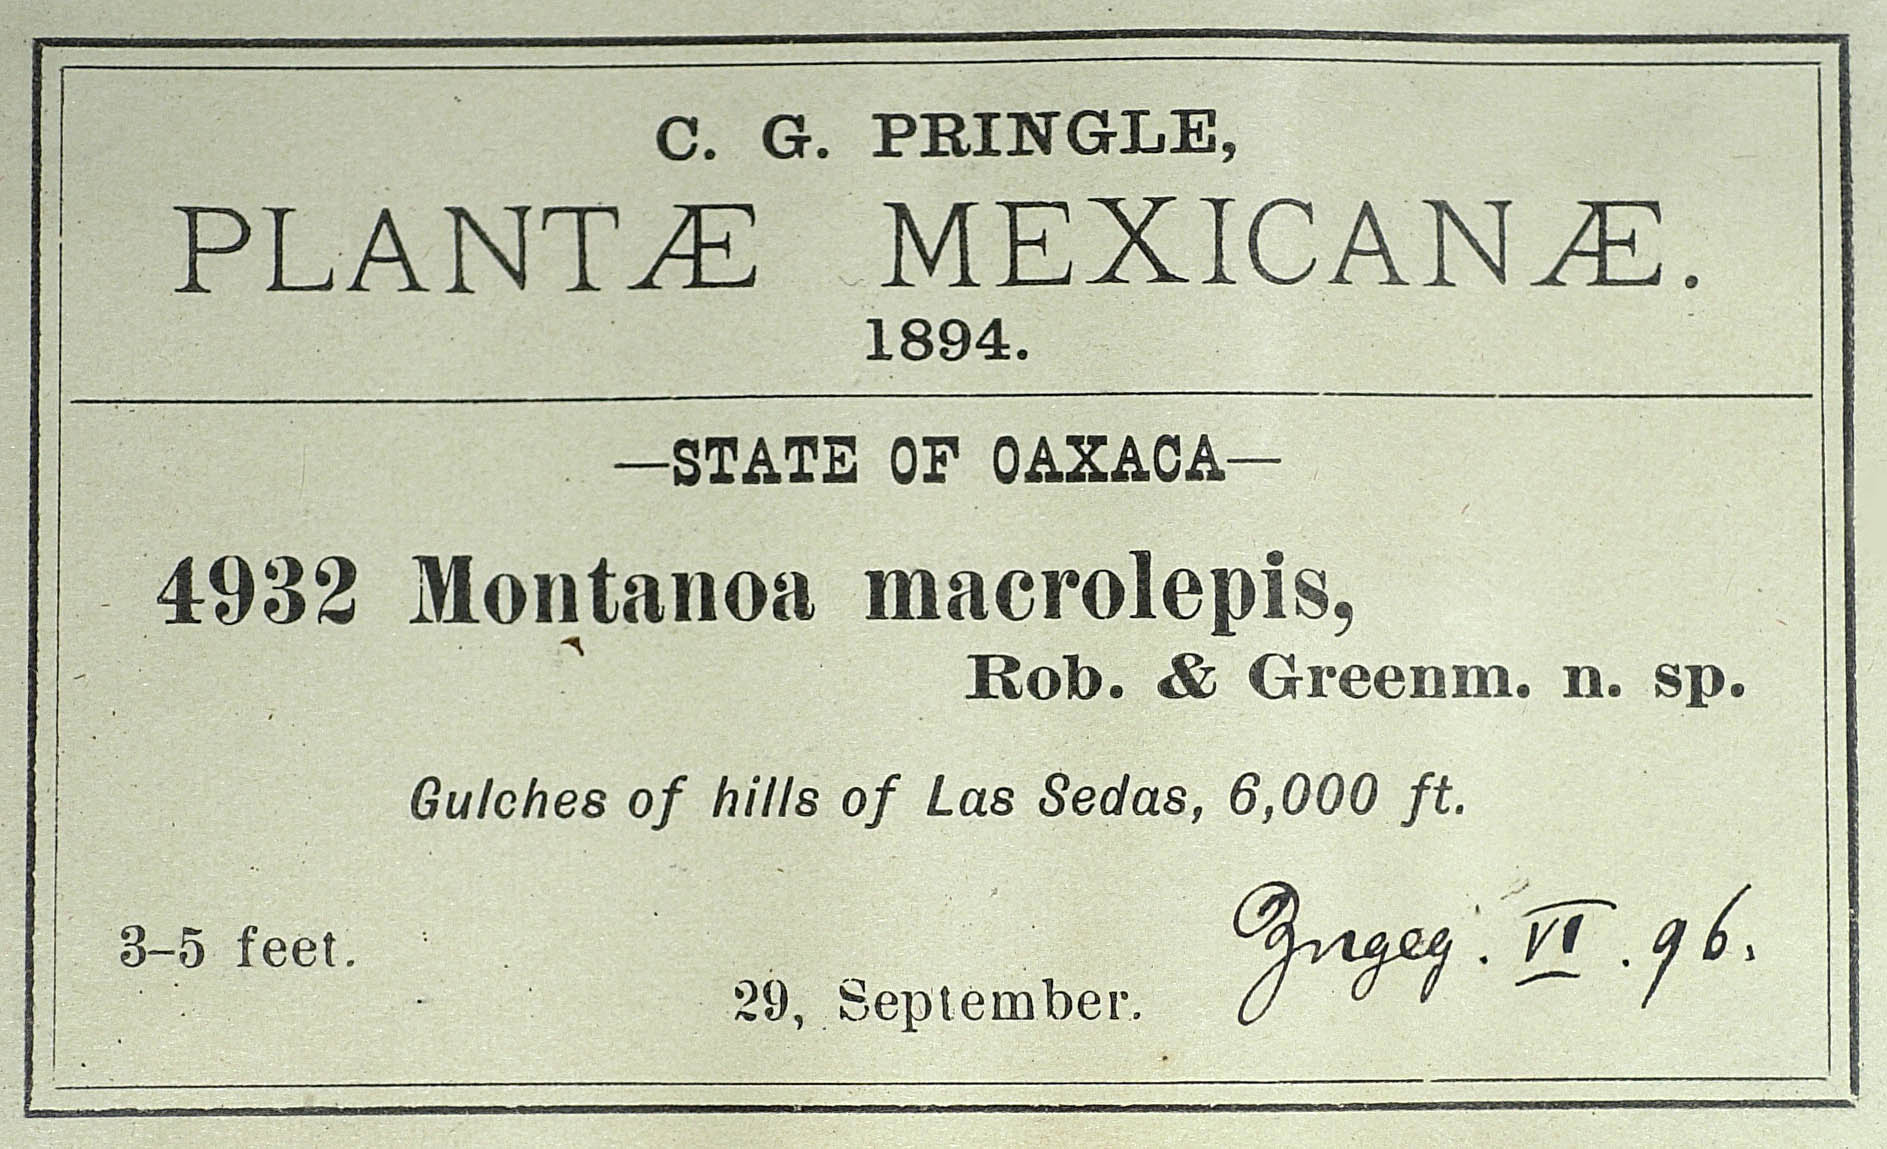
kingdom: Plantae
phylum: Tracheophyta
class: Magnoliopsida
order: Asterales
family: Asteraceae
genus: Montanoa
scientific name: Montanoa macrolepis
